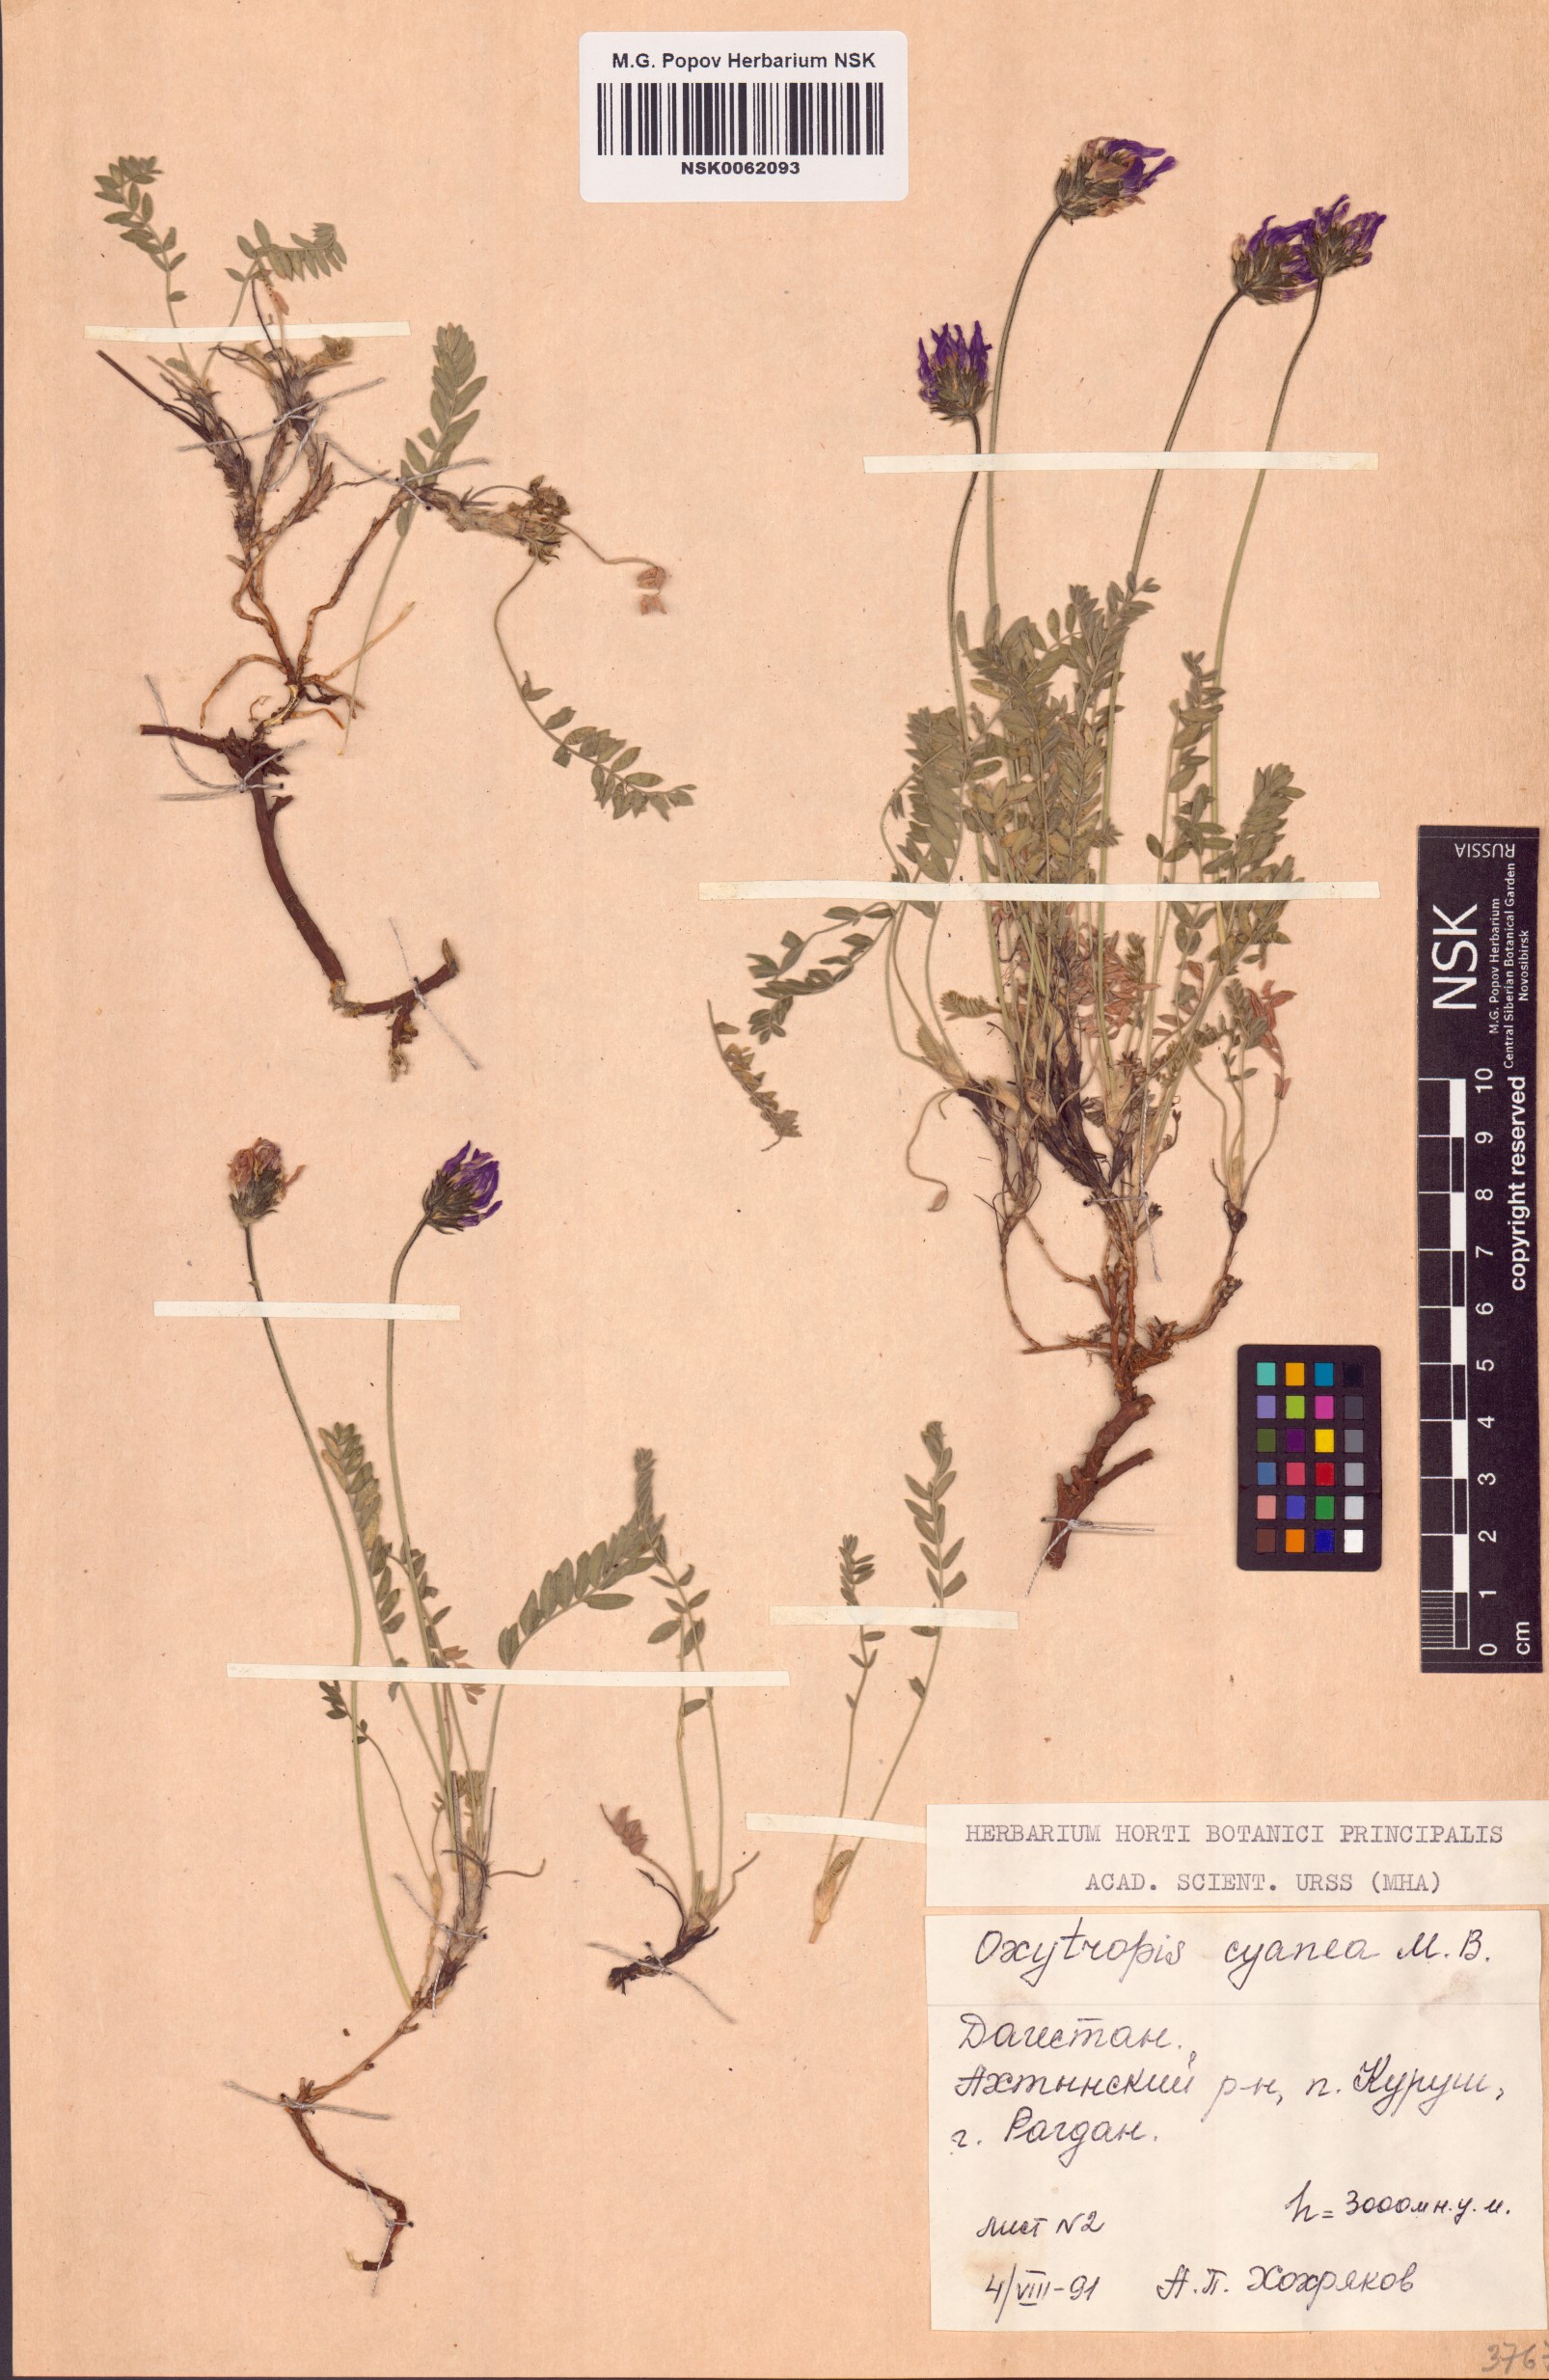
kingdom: Plantae
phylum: Tracheophyta
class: Magnoliopsida
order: Fabales
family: Fabaceae
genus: Oxytropis
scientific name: Oxytropis albana
